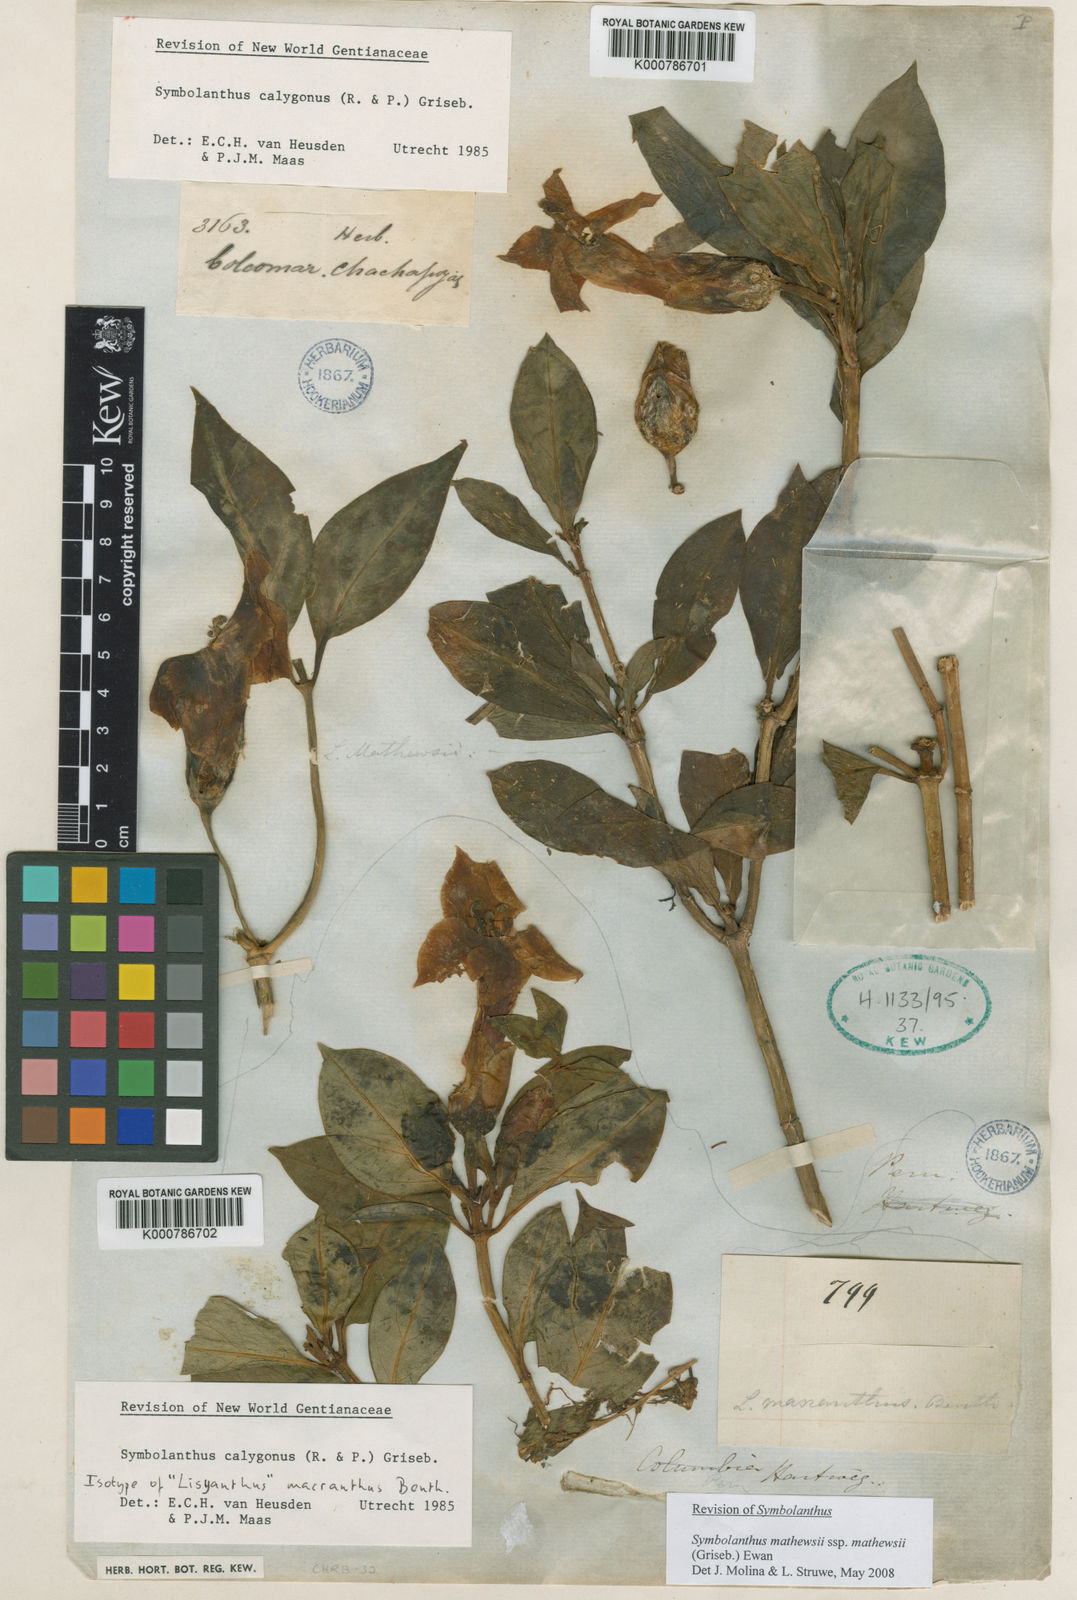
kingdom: Plantae
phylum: Tracheophyta
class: Magnoliopsida
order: Gentianales
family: Gentianaceae
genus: Symbolanthus
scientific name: Symbolanthus calygonus
